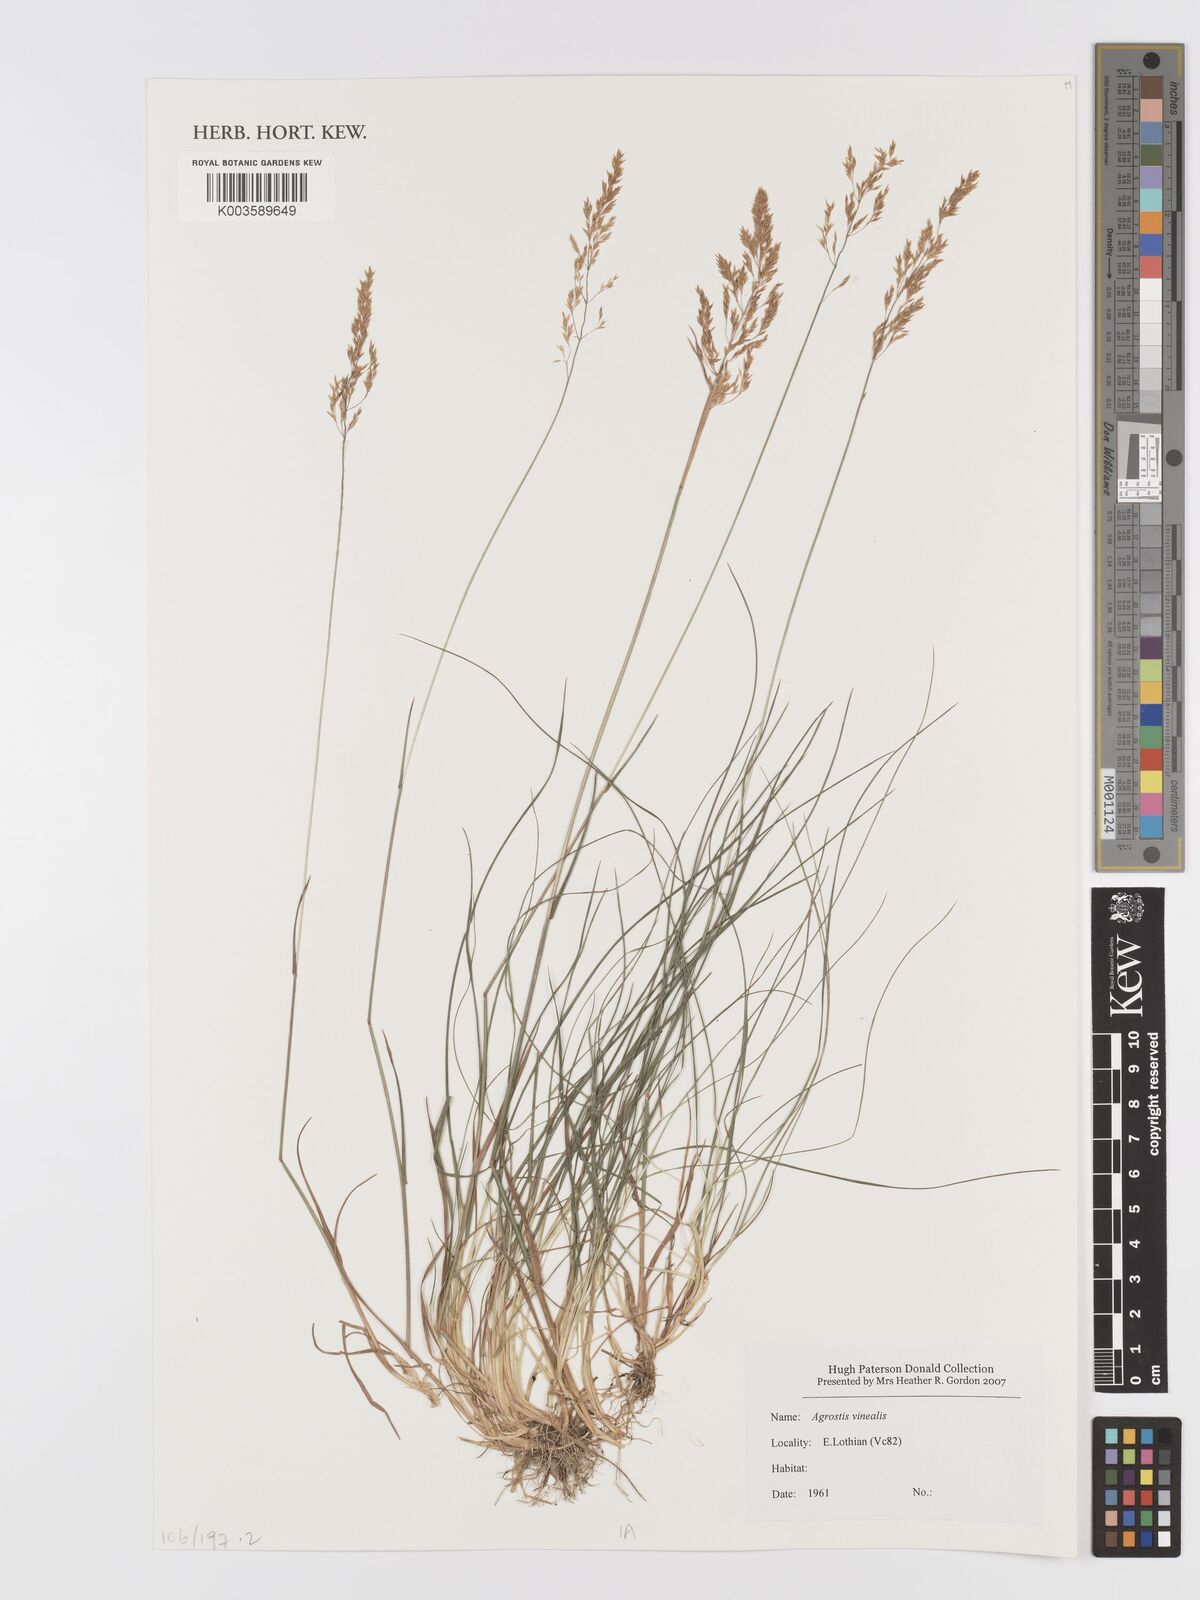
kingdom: Plantae
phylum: Tracheophyta
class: Liliopsida
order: Poales
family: Poaceae
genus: Agrostis
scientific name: Agrostis
